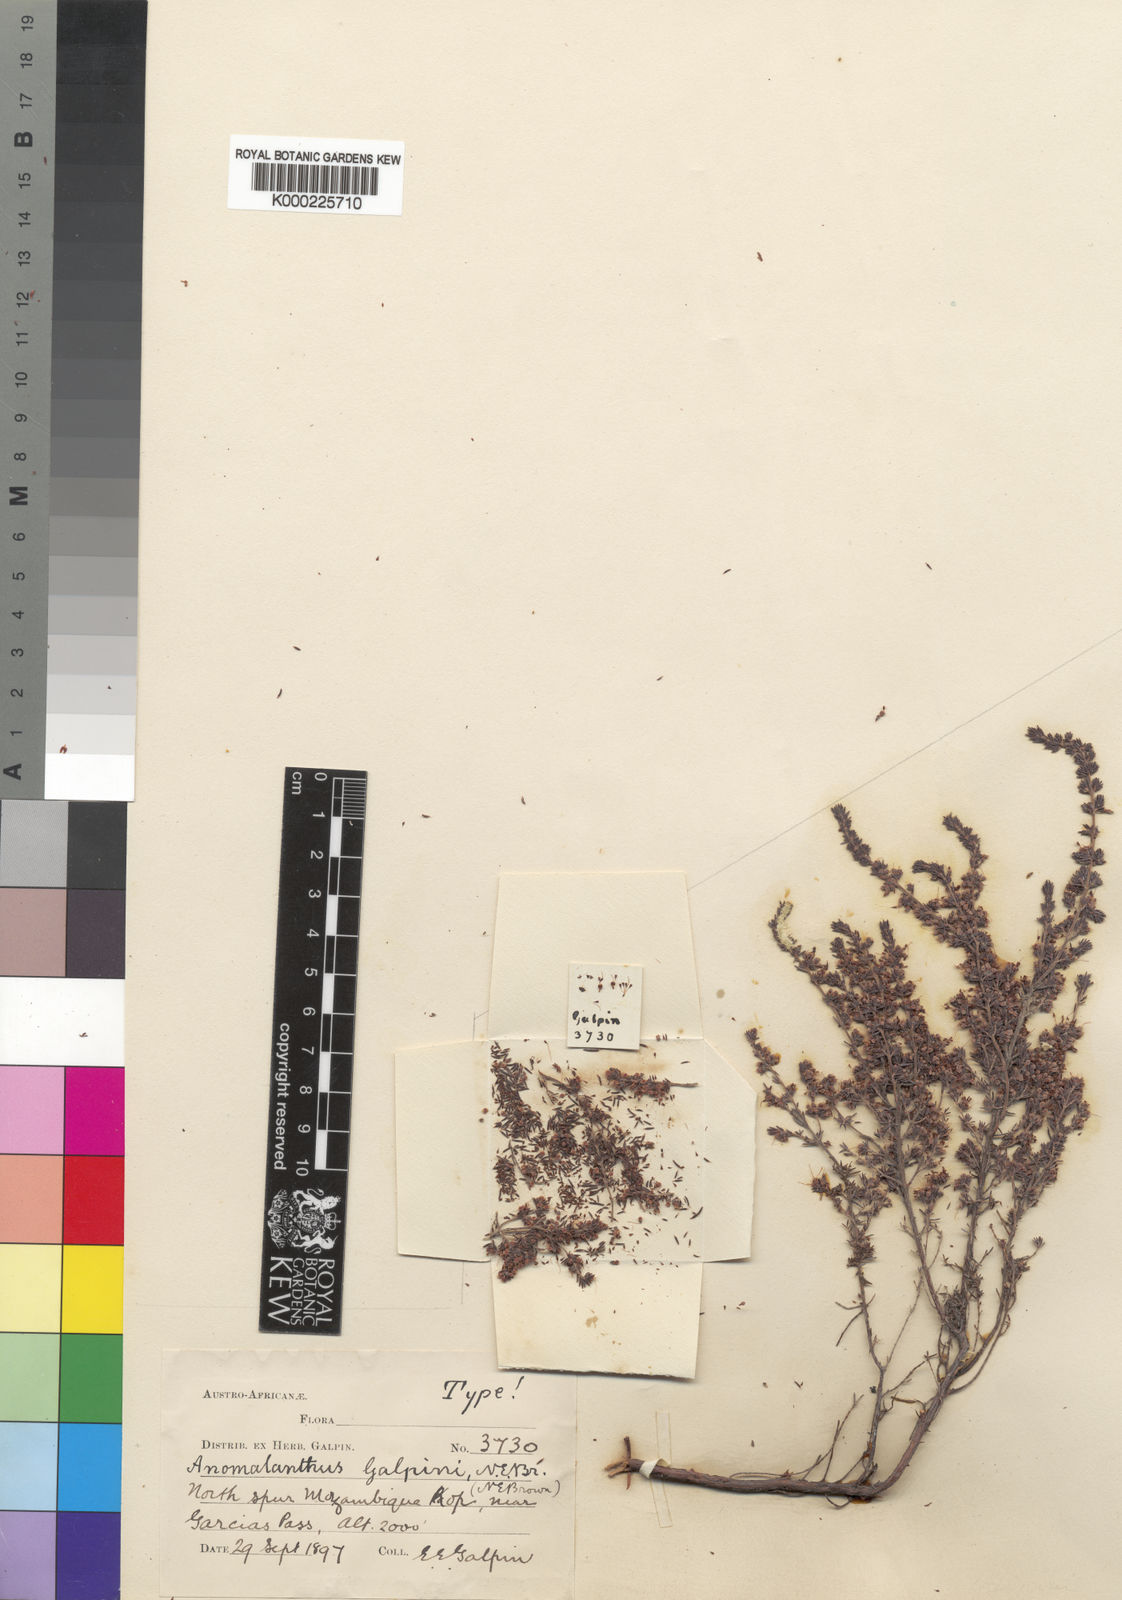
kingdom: Plantae
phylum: Tracheophyta
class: Magnoliopsida
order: Ericales
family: Ericaceae
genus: Erica
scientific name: Erica
